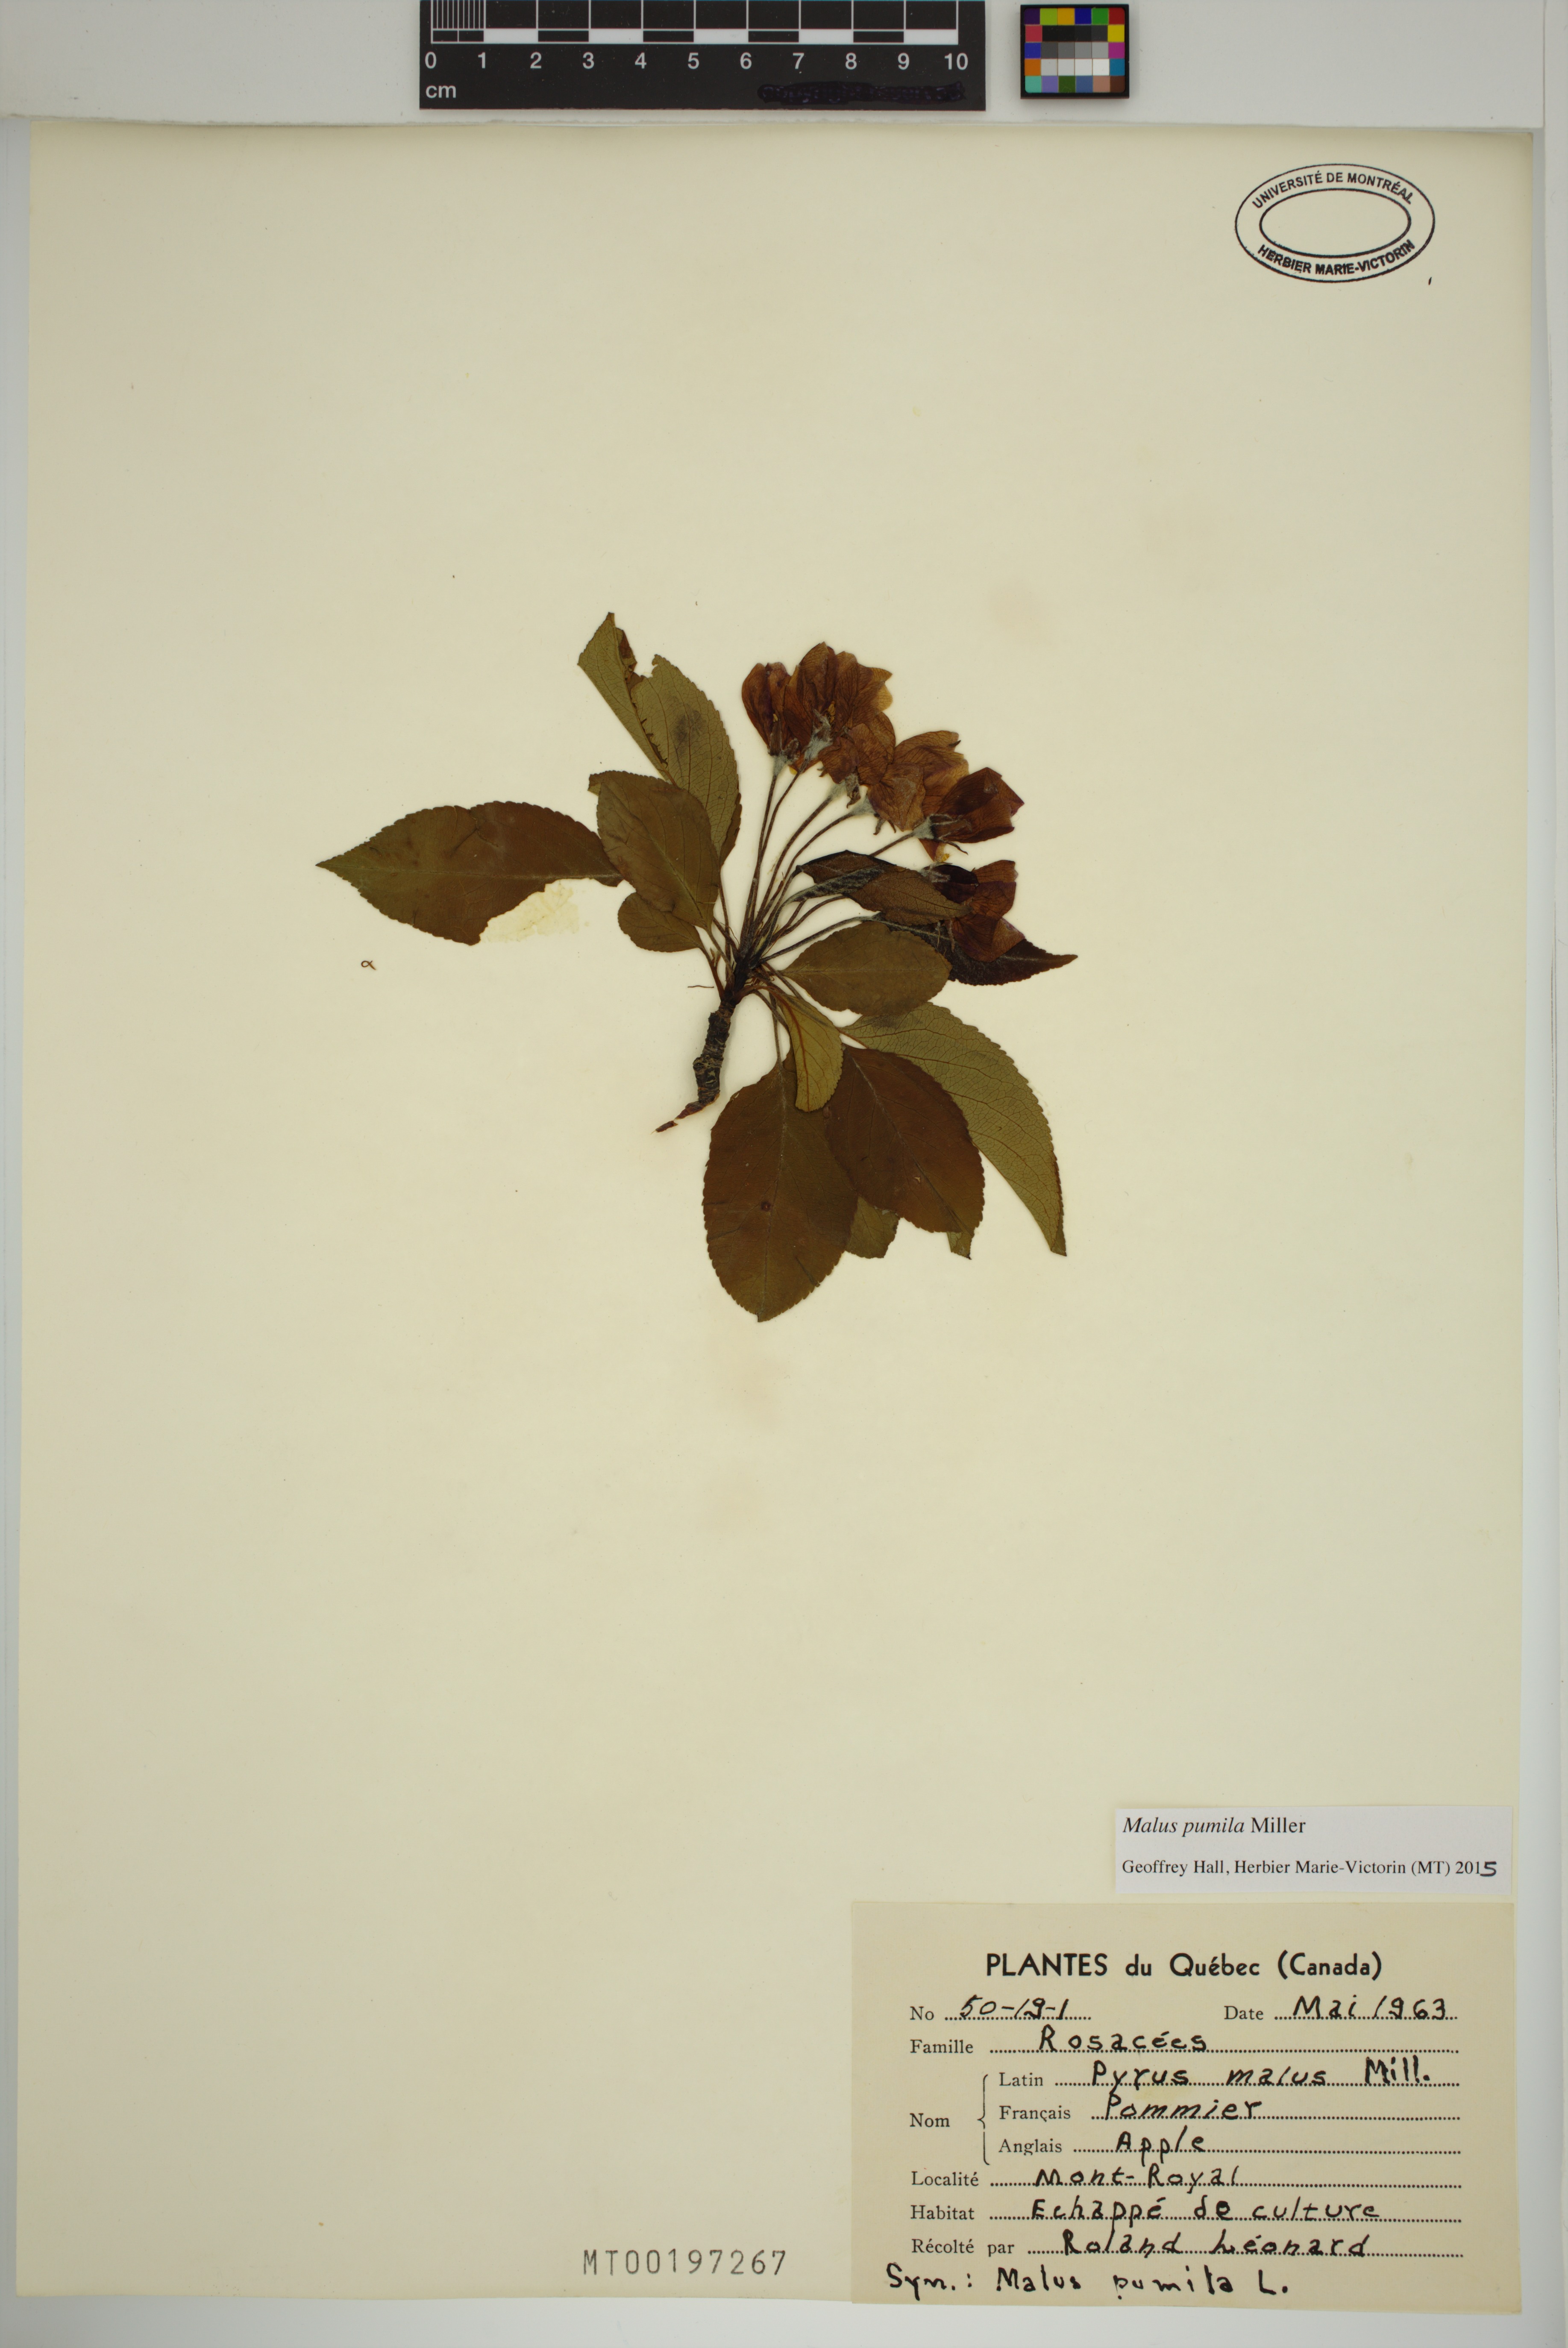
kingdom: Plantae
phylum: Tracheophyta
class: Magnoliopsida
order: Rosales
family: Rosaceae
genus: Malus
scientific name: Malus domestica
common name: Apple
